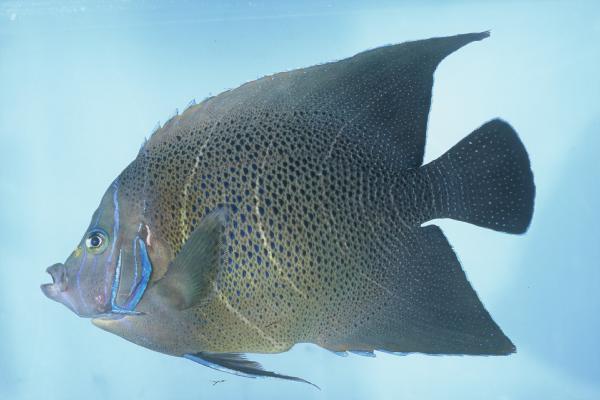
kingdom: Animalia
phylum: Chordata
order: Perciformes
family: Pomacanthidae
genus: Pomacanthus
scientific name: Pomacanthus semicirculatus
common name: Semicircle angelfish
